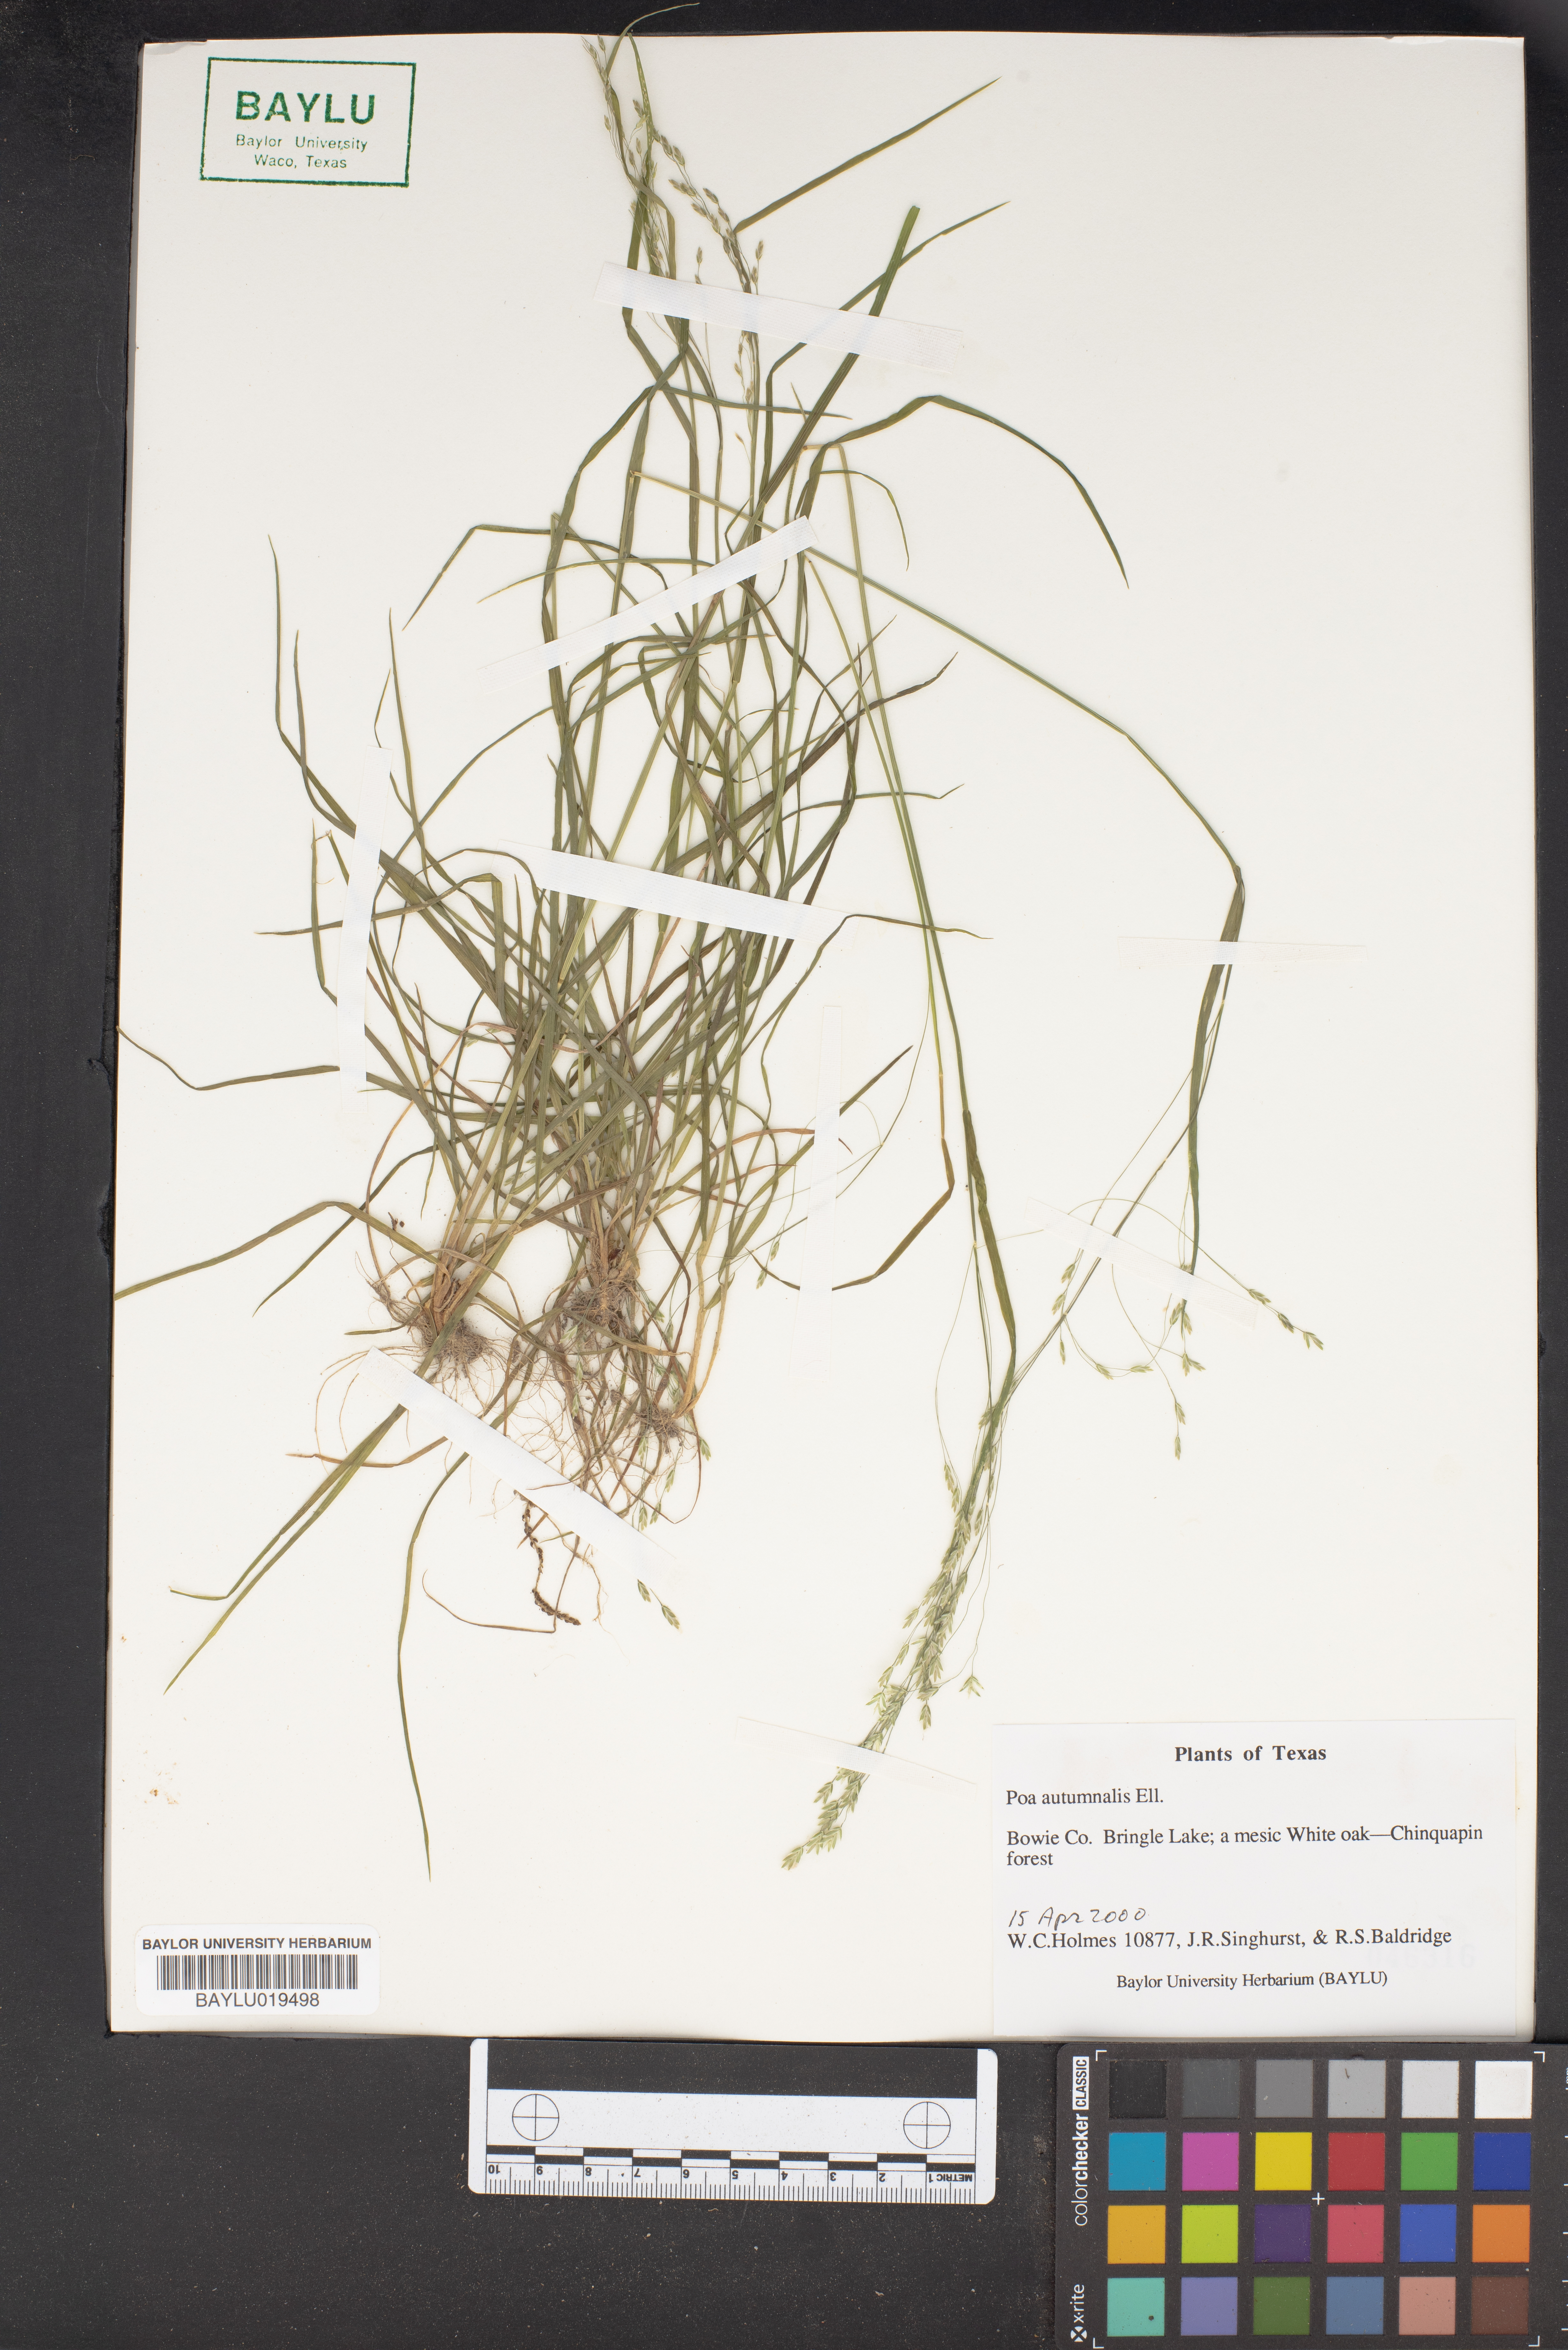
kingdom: Plantae
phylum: Tracheophyta
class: Liliopsida
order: Poales
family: Poaceae
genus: Poa
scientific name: Poa autumnalis
